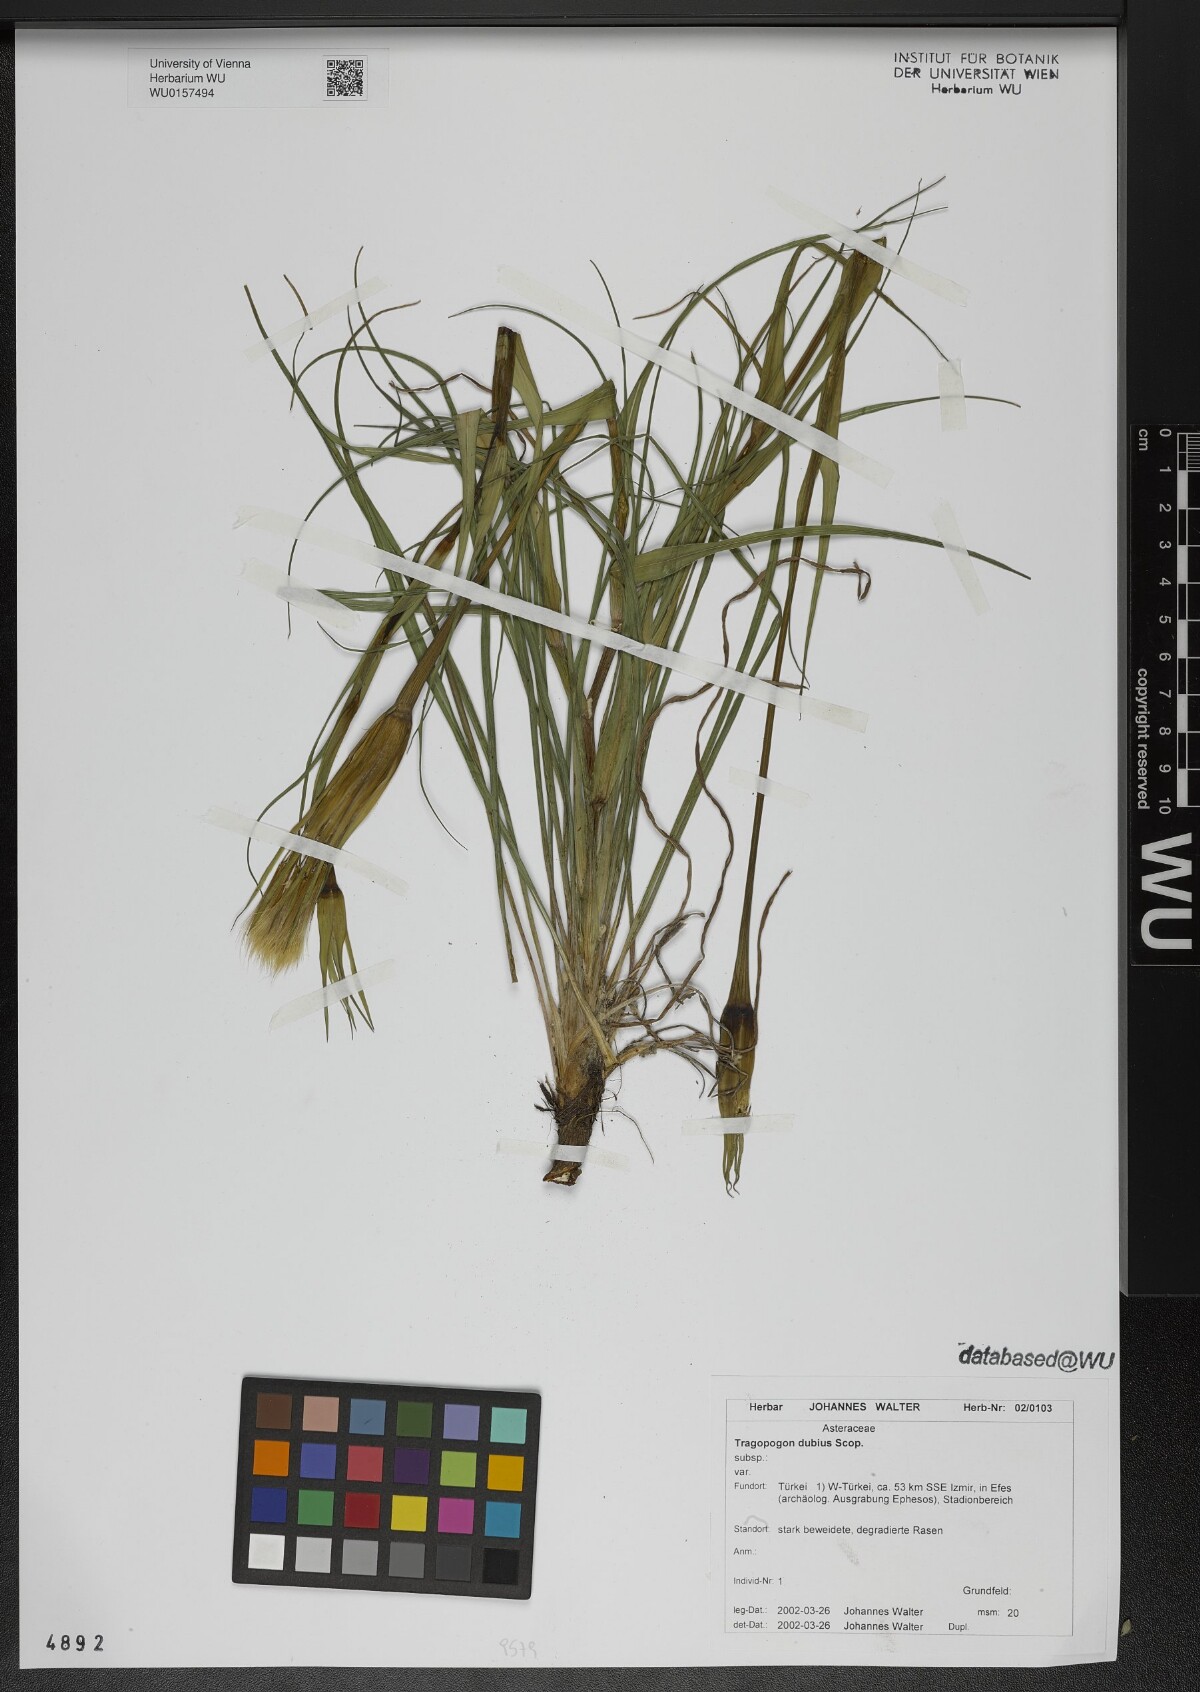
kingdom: Plantae
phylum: Tracheophyta
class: Magnoliopsida
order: Asterales
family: Asteraceae
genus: Tragopogon
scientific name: Tragopogon dubius
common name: Yellow salsify
